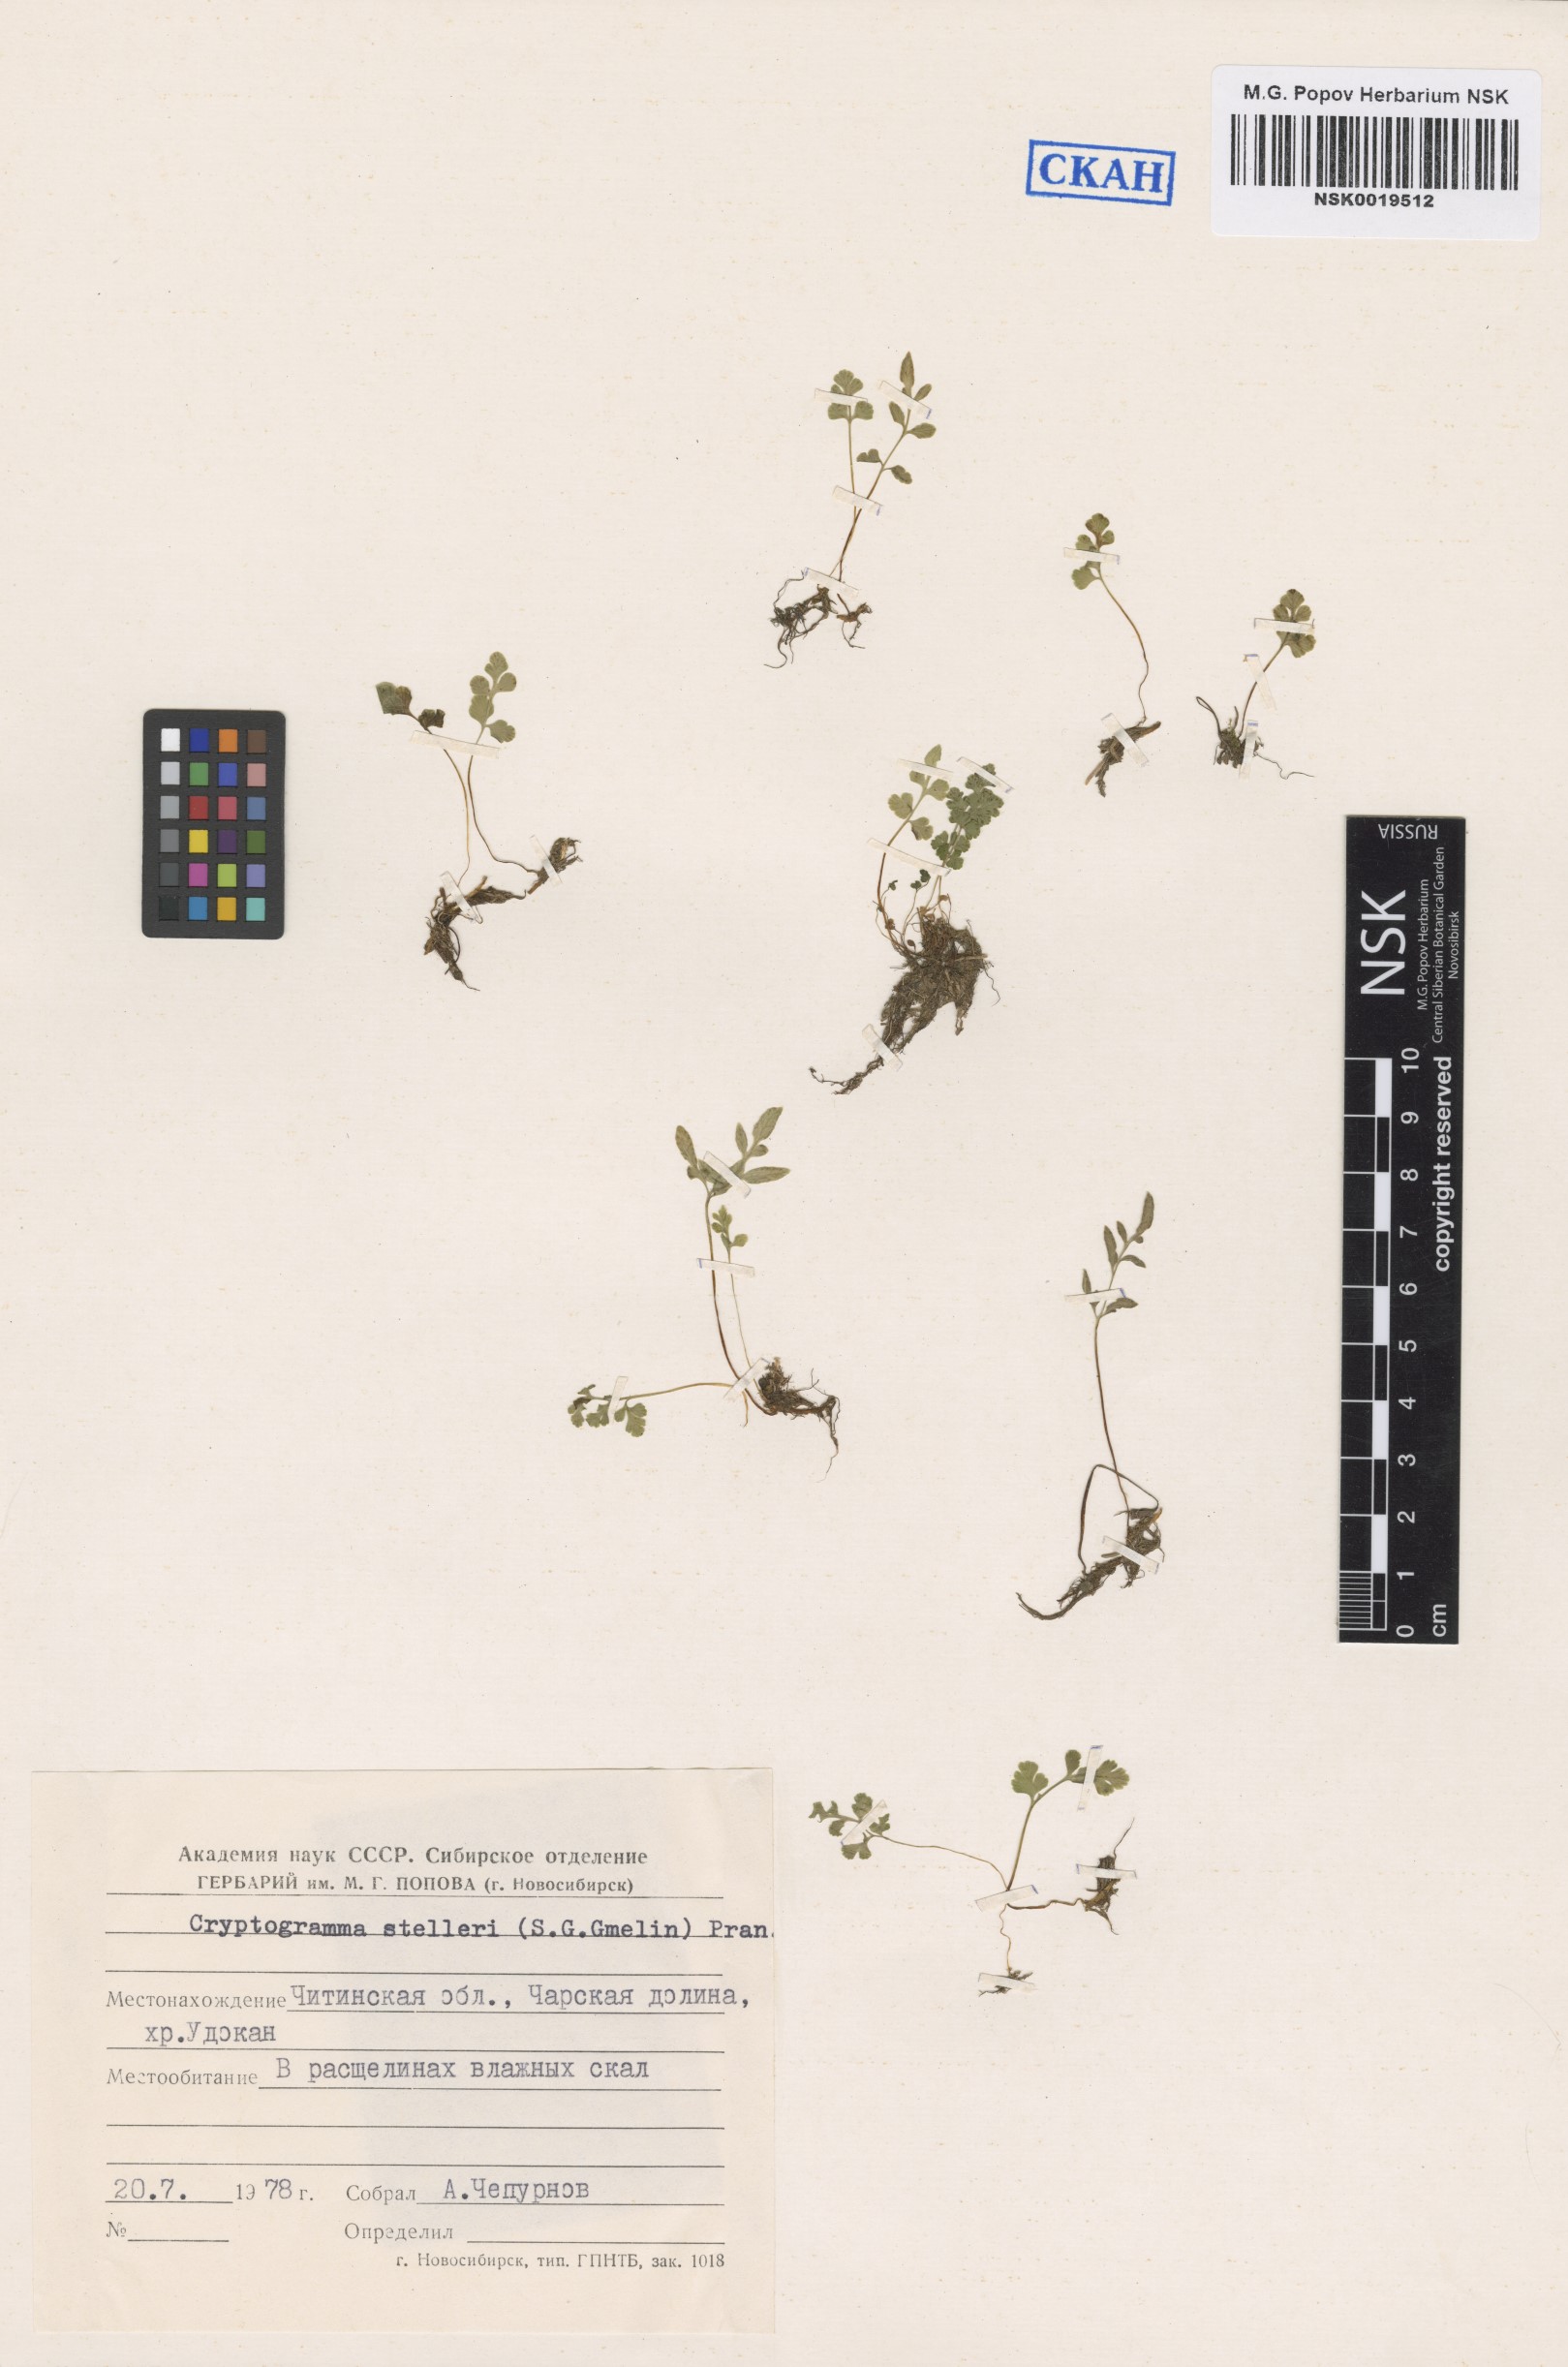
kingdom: Plantae
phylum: Tracheophyta
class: Polypodiopsida
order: Polypodiales
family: Pteridaceae
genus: Cryptogramma
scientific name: Cryptogramma stelleri
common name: Cliff-brake
